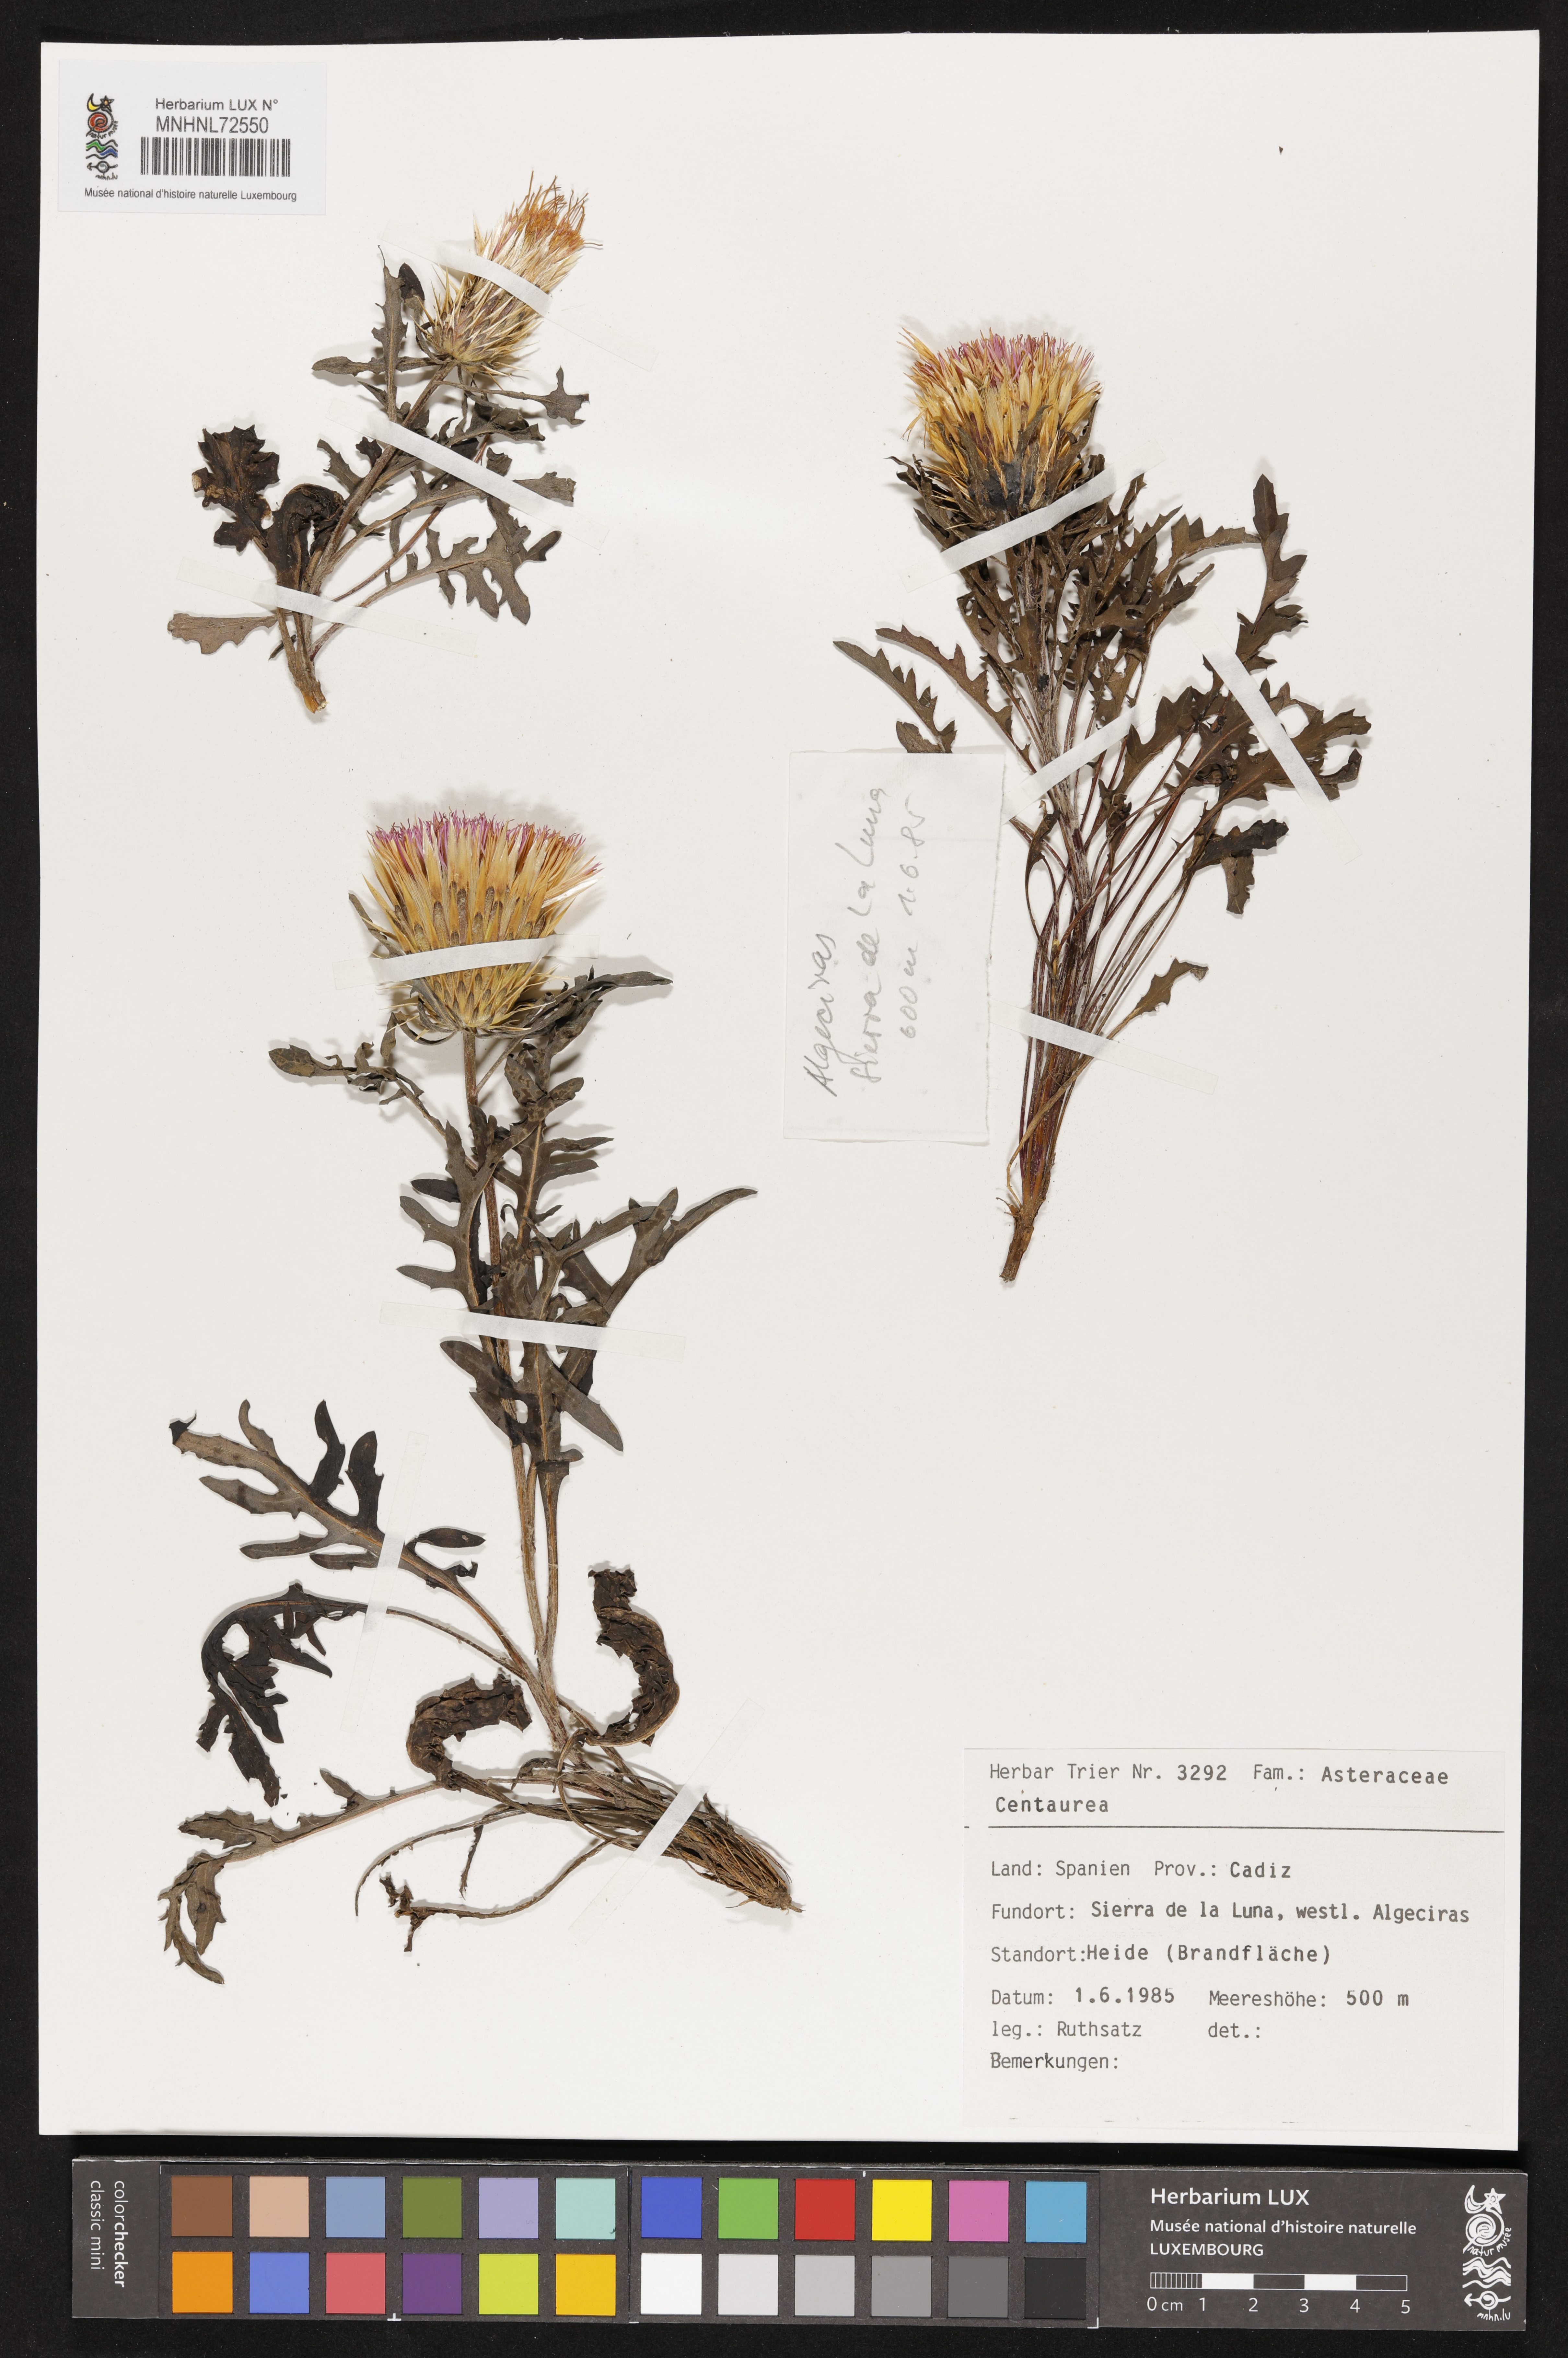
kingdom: Plantae
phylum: Tracheophyta
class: Magnoliopsida
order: Asterales
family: Asteraceae
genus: Centaurea
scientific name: Centaurea
